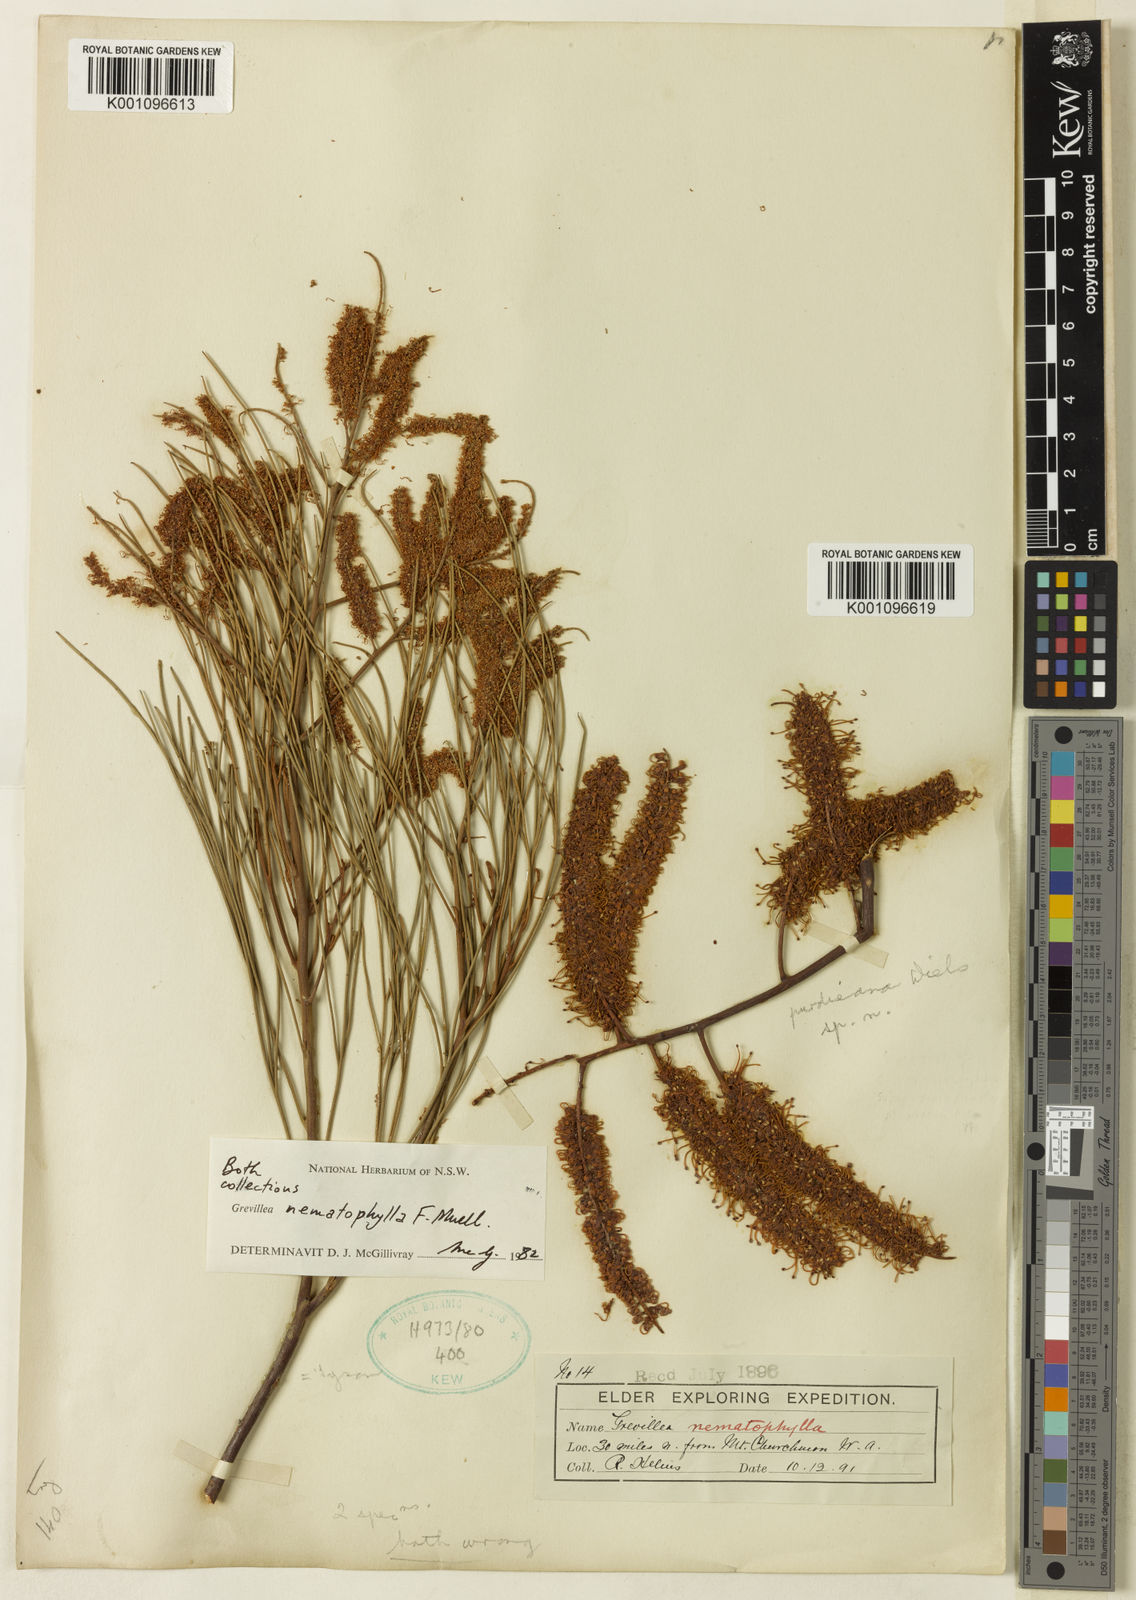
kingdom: Plantae
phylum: Tracheophyta
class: Magnoliopsida
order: Proteales
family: Proteaceae
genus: Grevillea
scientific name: Grevillea nematophylla
